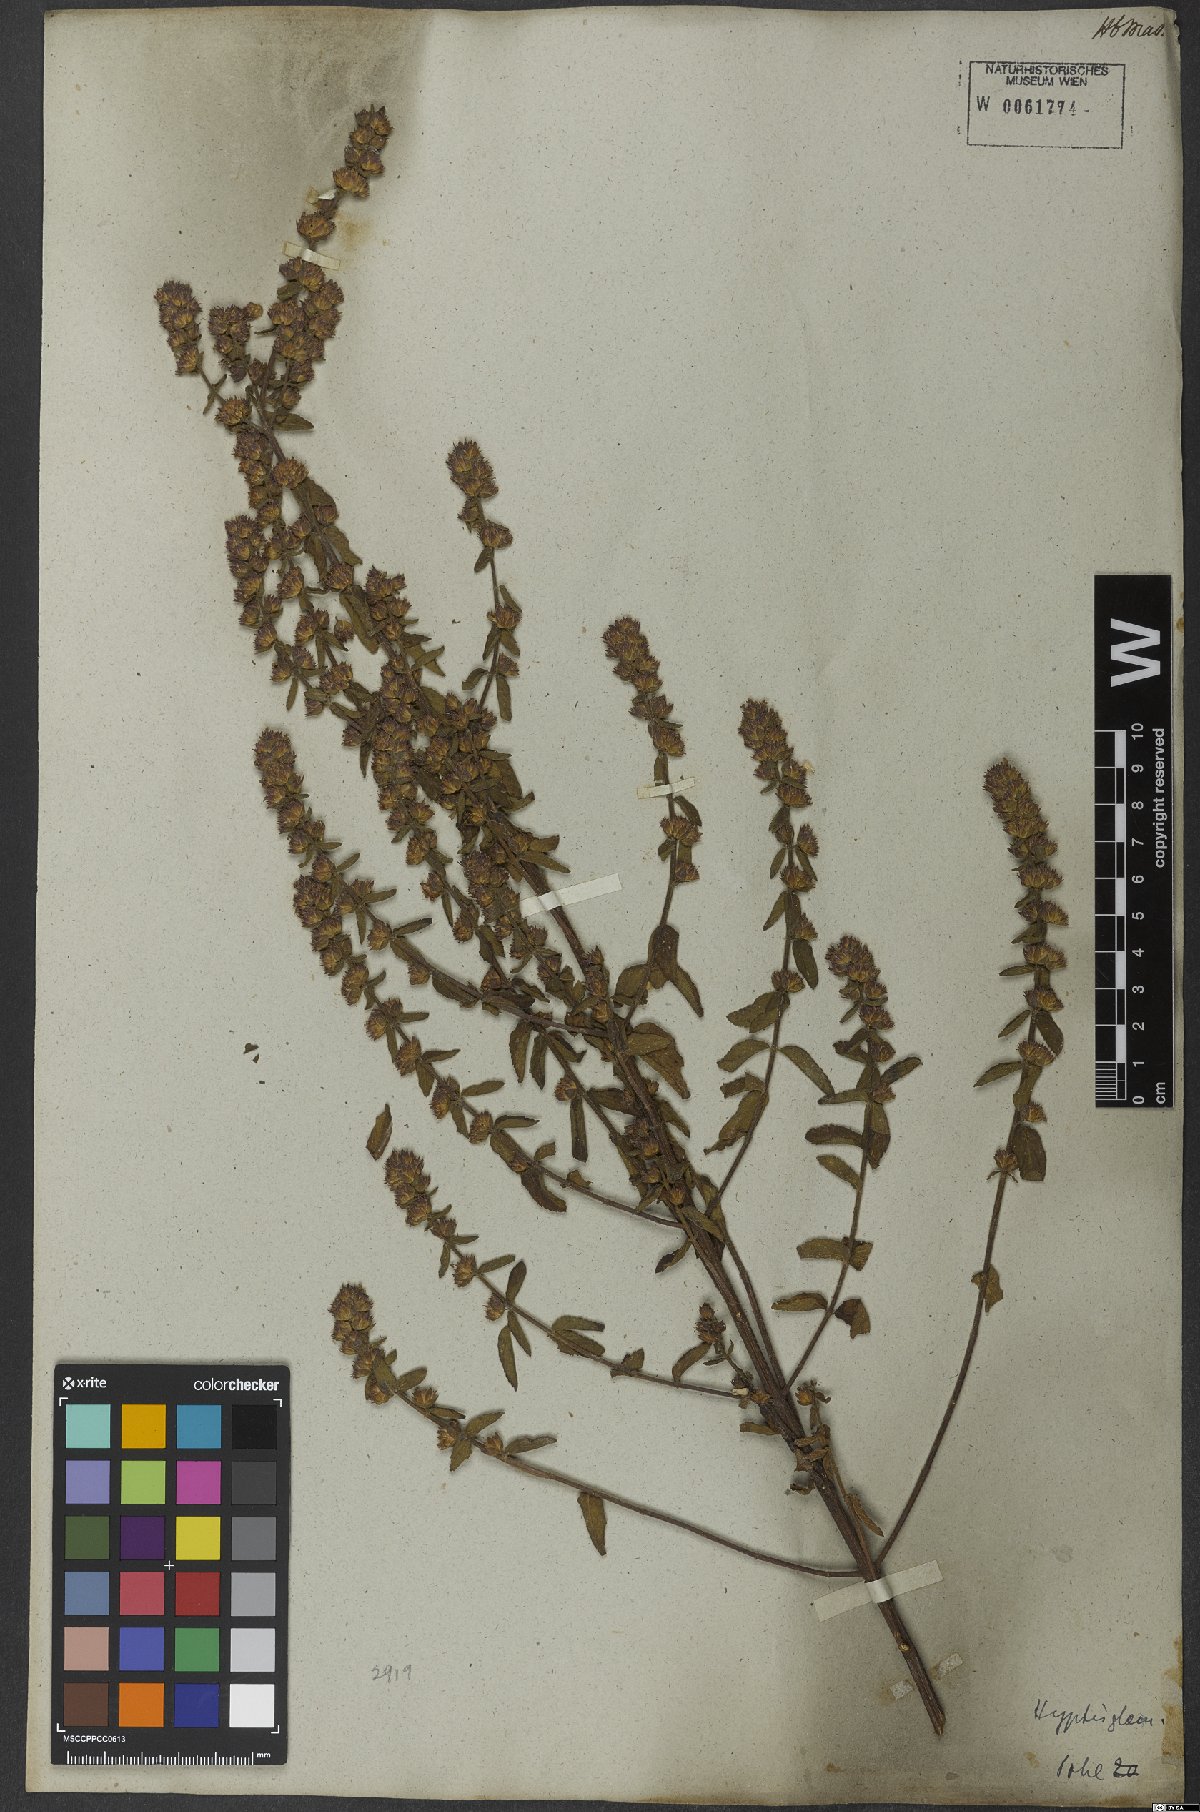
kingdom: Plantae
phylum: Tracheophyta
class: Magnoliopsida
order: Lamiales
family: Lamiaceae
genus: Oocephalus
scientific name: Oocephalus oppositiflorus
